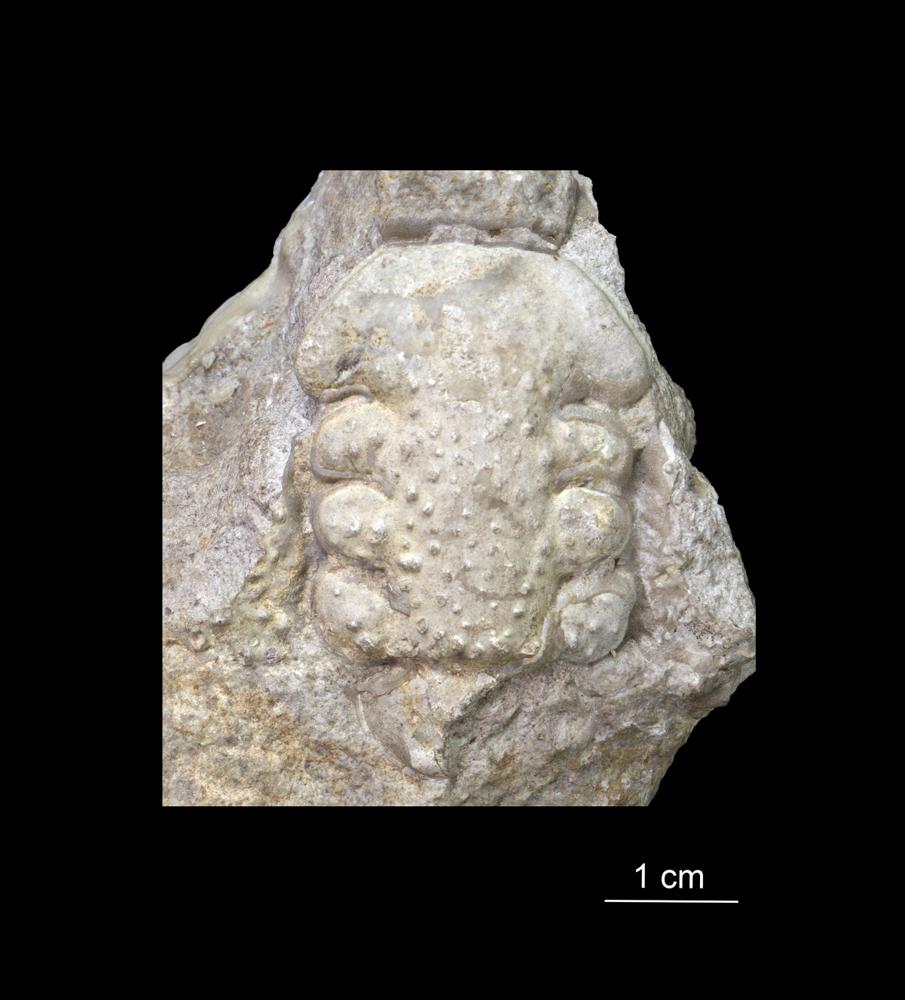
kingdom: Animalia
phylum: Arthropoda
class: Trilobita
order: Phacopida
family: Cheiruridae
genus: Paraceraurus
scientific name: Paraceraurus
